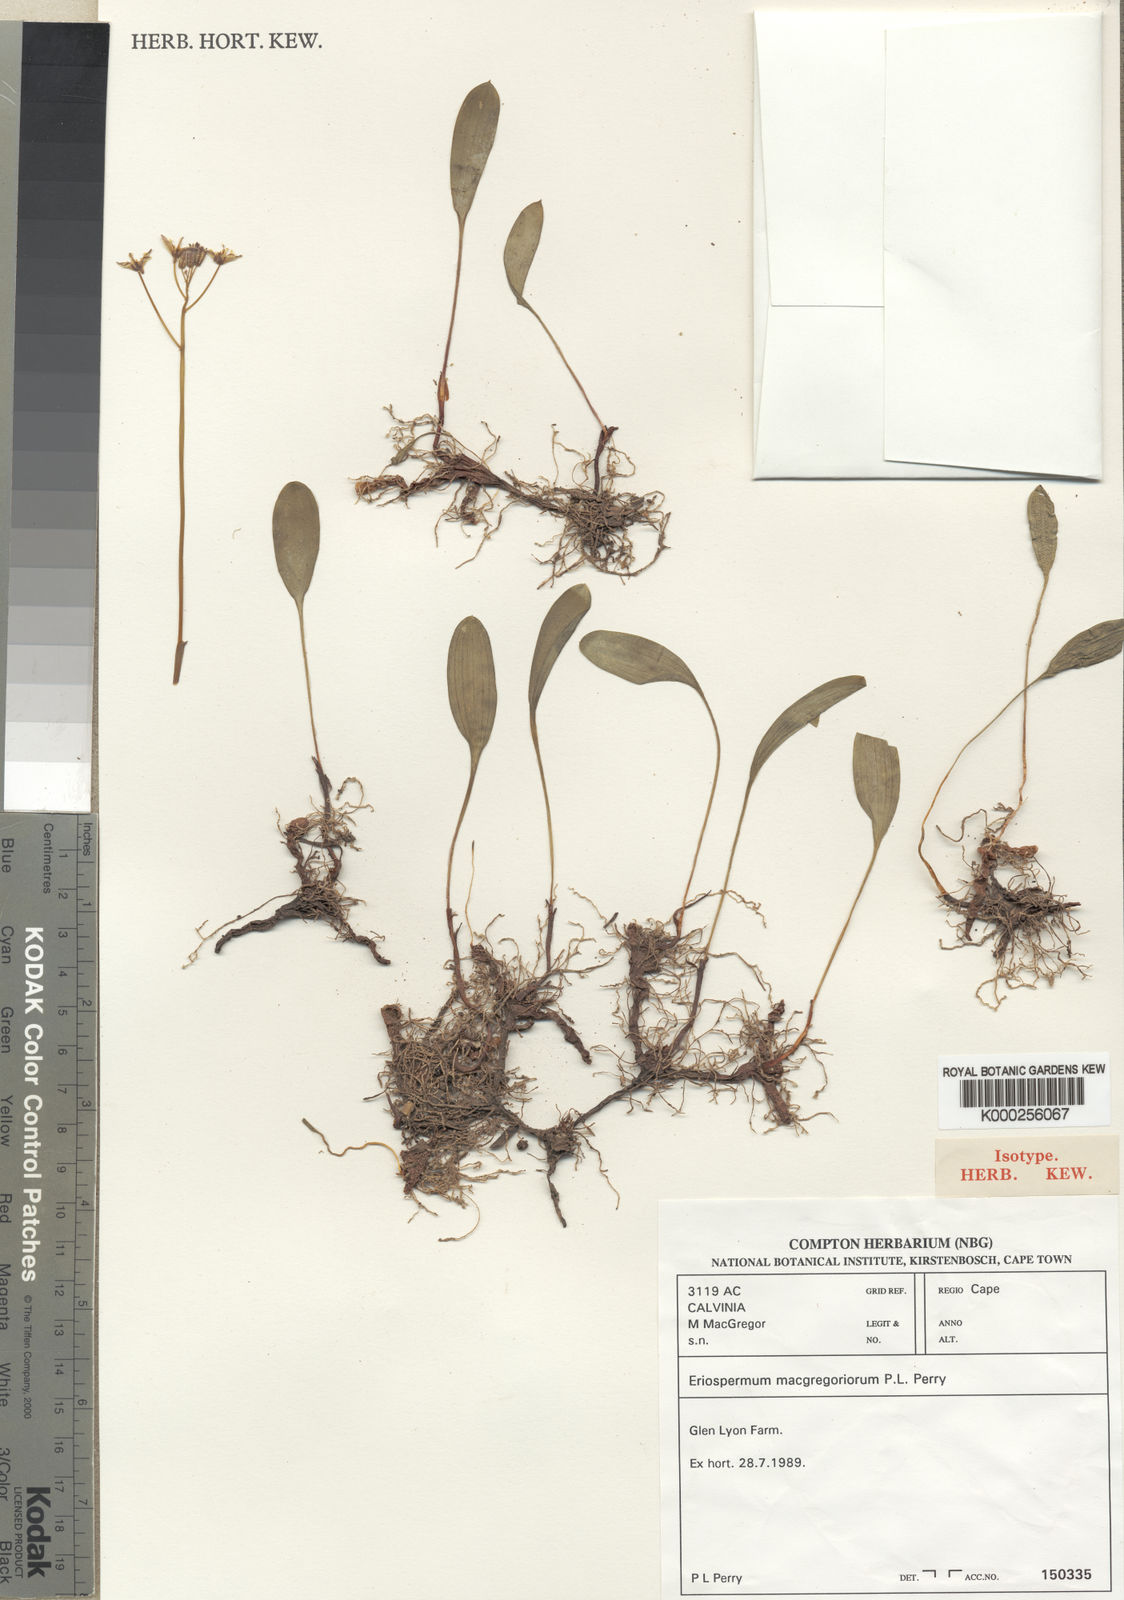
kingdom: Plantae
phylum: Tracheophyta
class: Liliopsida
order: Asparagales
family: Asparagaceae
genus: Eriospermum
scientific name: Eriospermum macgregoriorum
